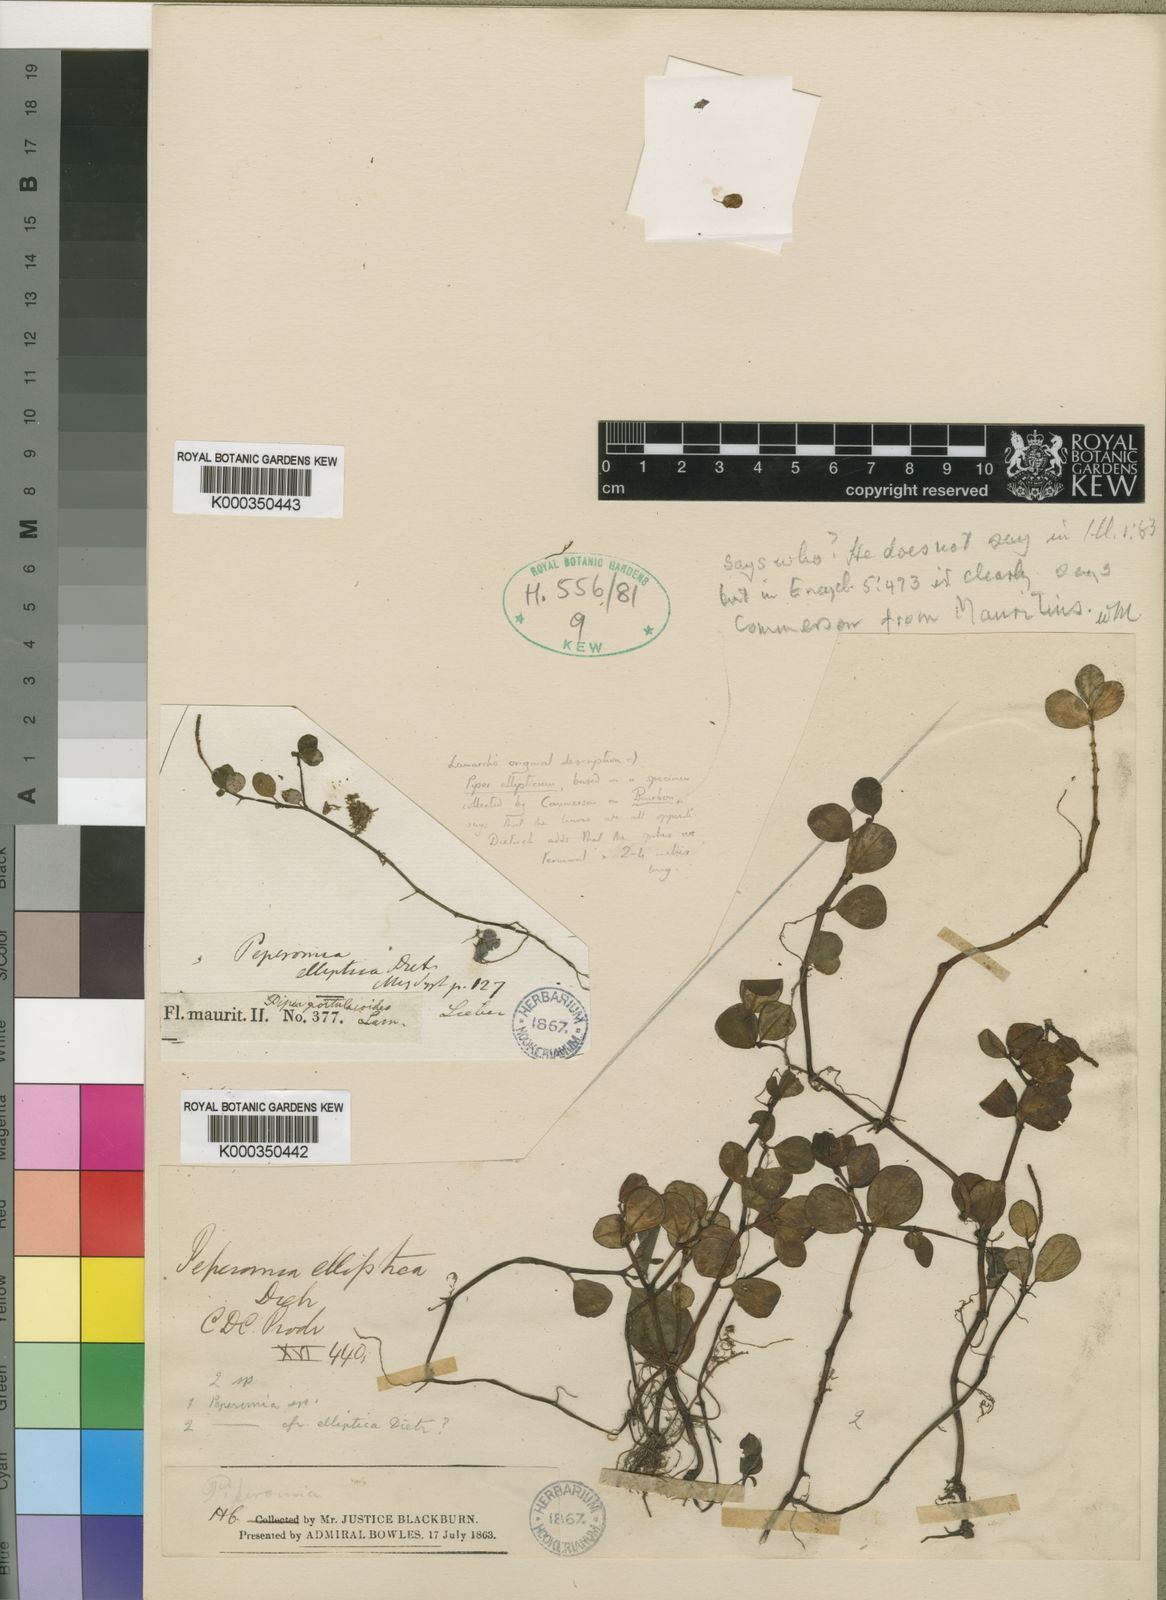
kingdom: Plantae
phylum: Tracheophyta
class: Magnoliopsida
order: Piperales
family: Piperaceae
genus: Peperomia
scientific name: Peperomia
